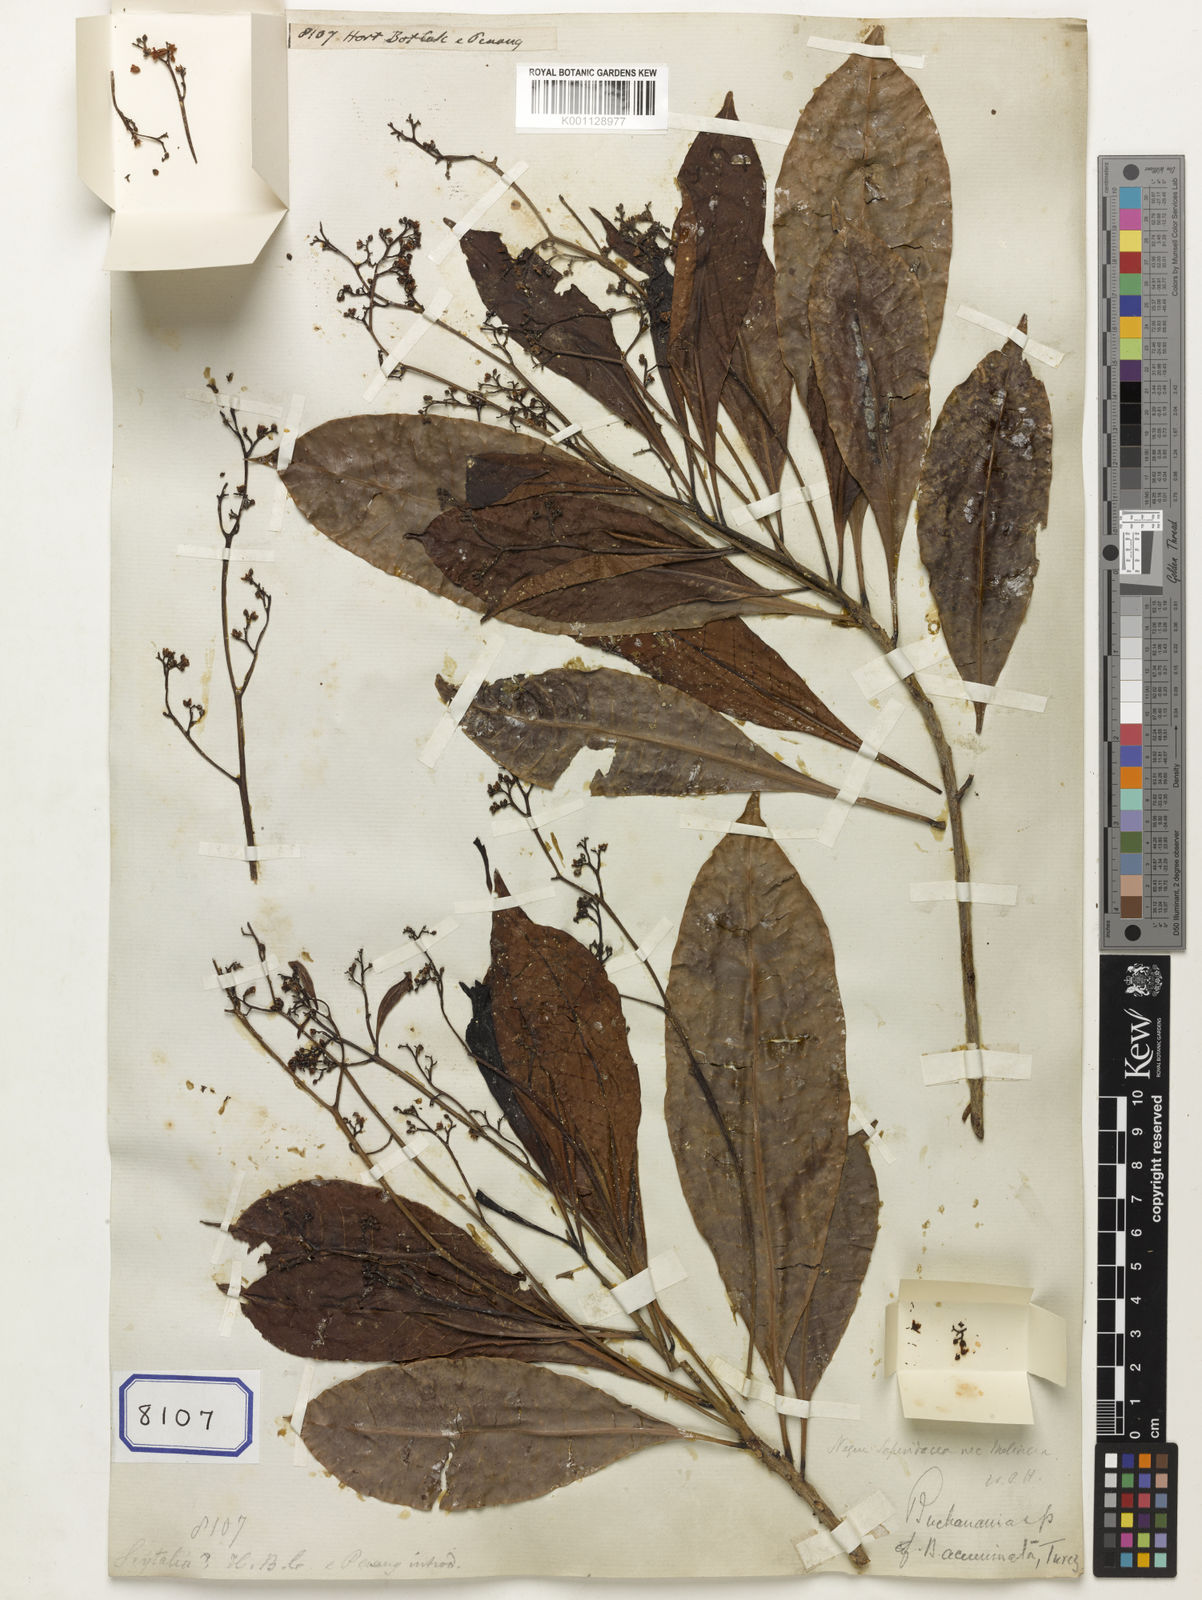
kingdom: Plantae
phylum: Tracheophyta
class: Magnoliopsida
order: Sapindales
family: Sapindaceae
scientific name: Sapindaceae
